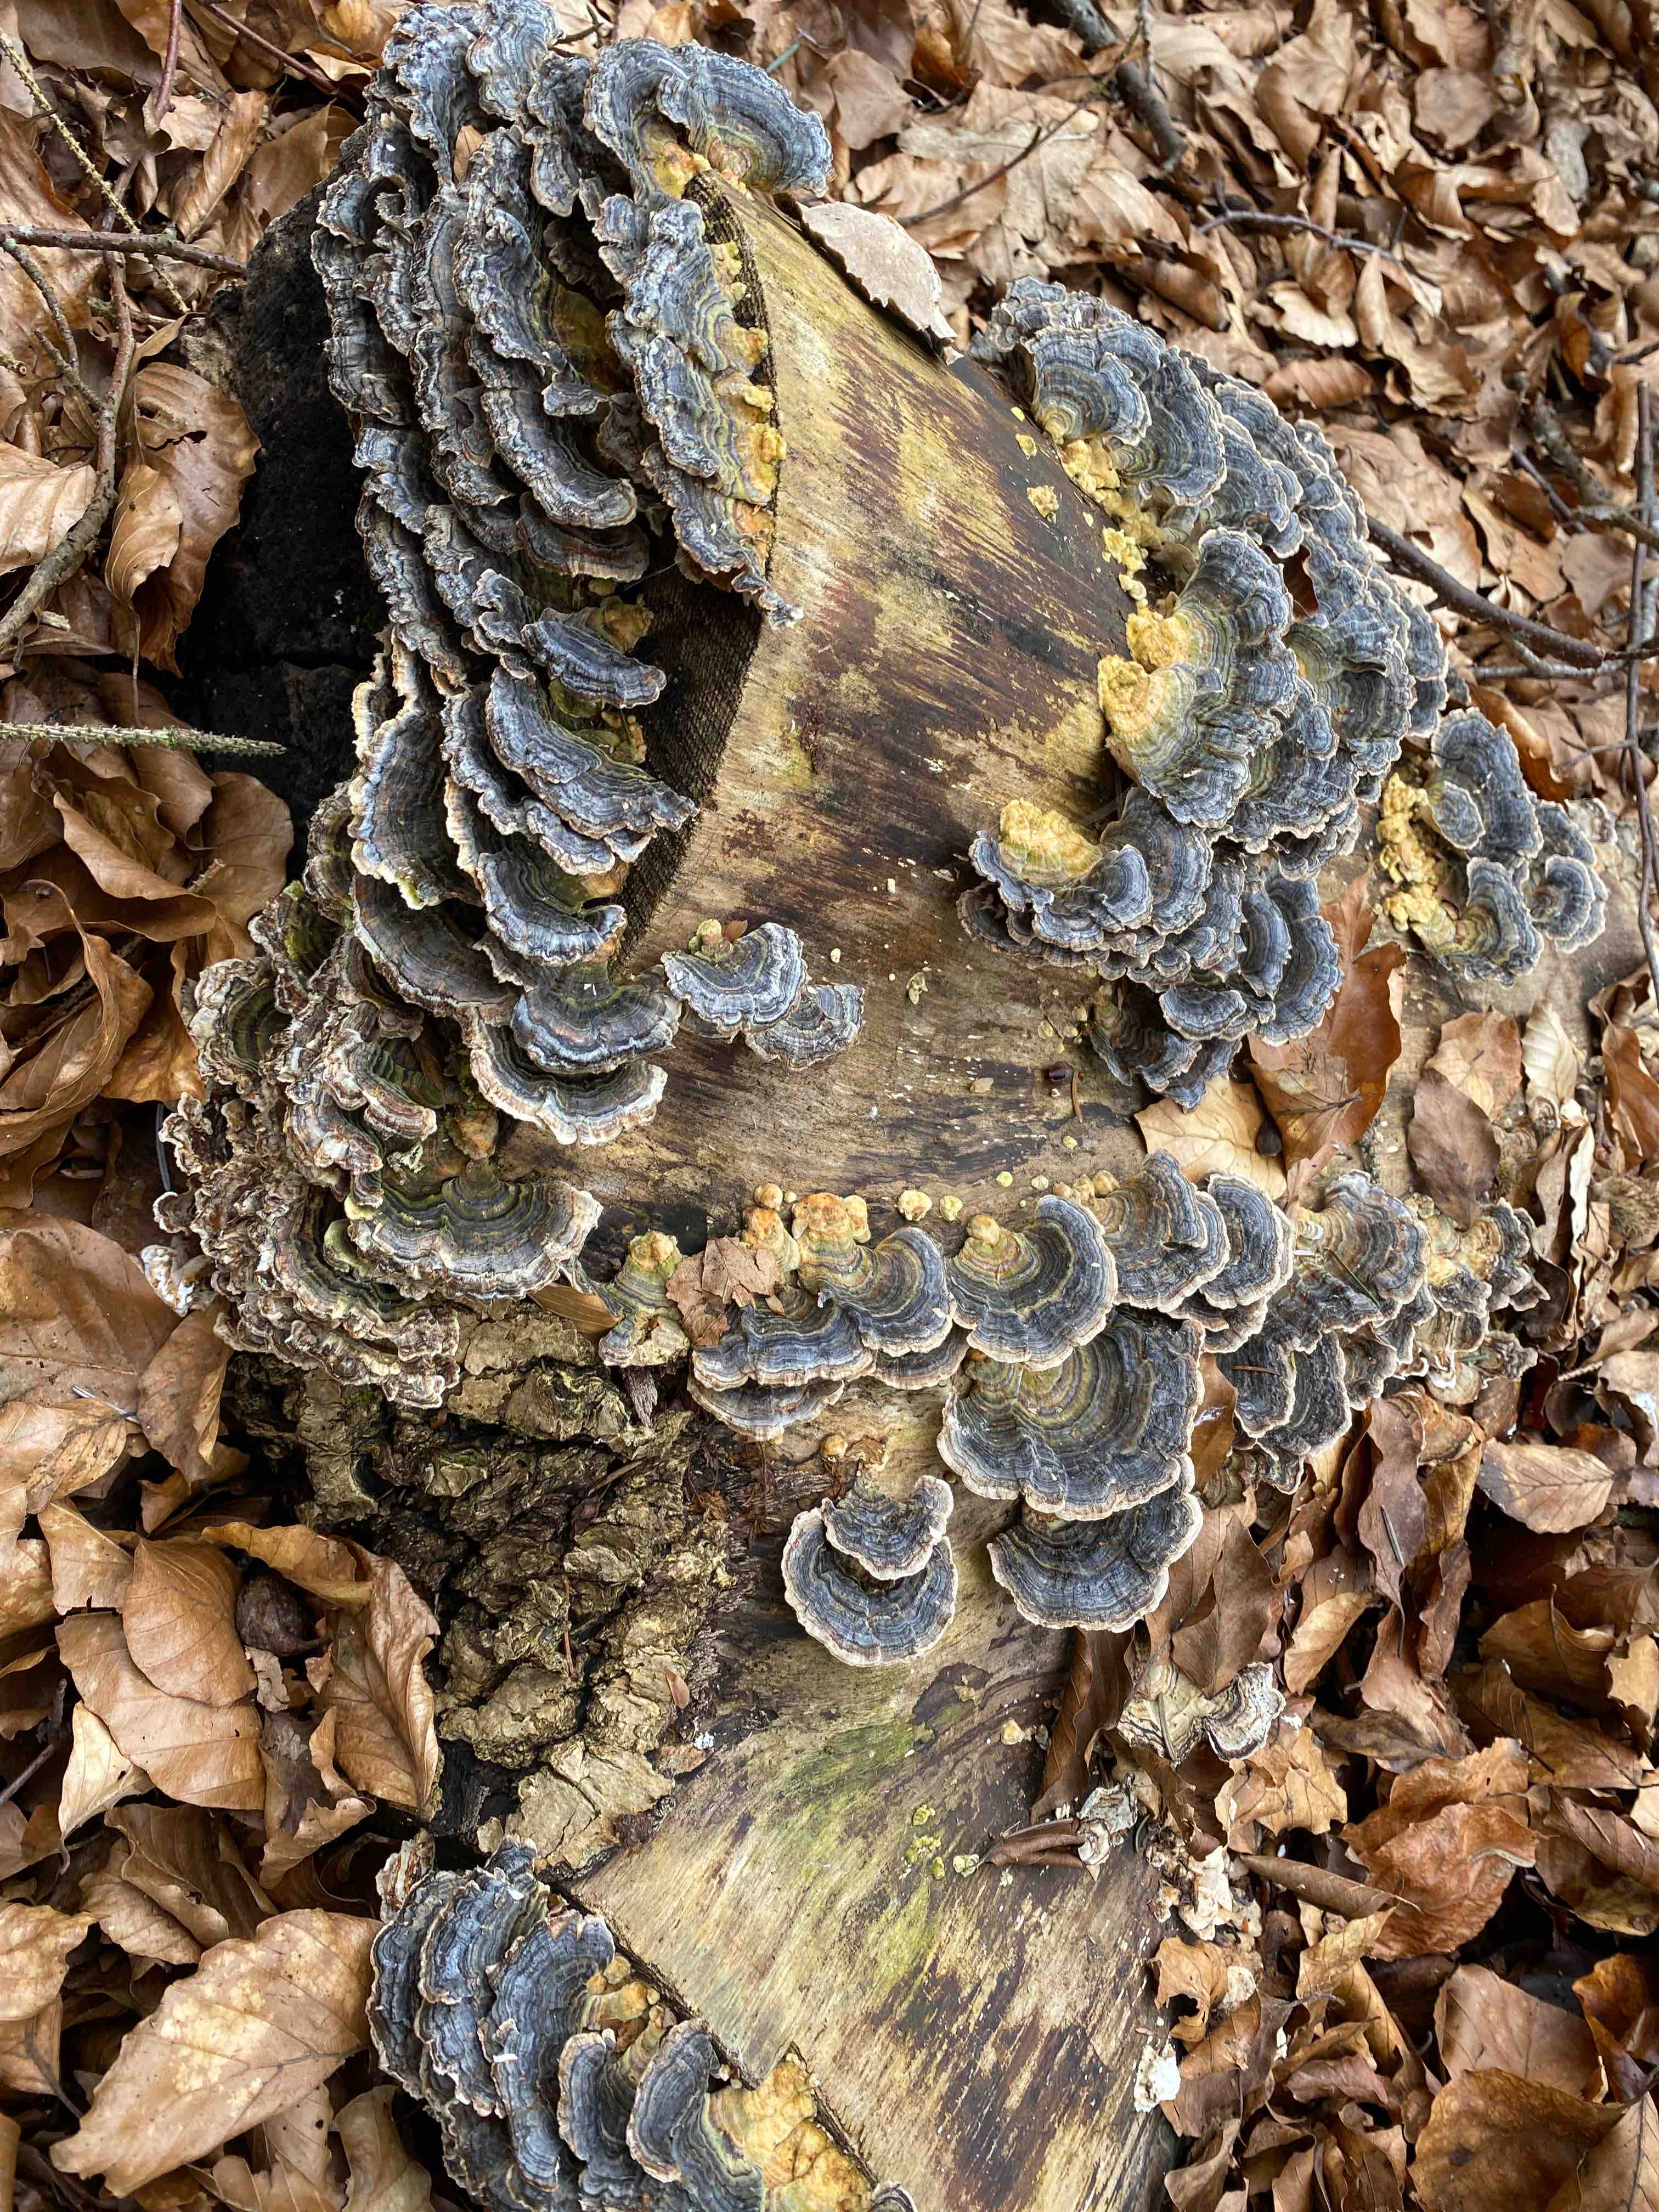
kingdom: Fungi
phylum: Basidiomycota
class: Agaricomycetes
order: Polyporales
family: Polyporaceae
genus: Trametes
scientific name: Trametes versicolor
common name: broget læderporesvamp
